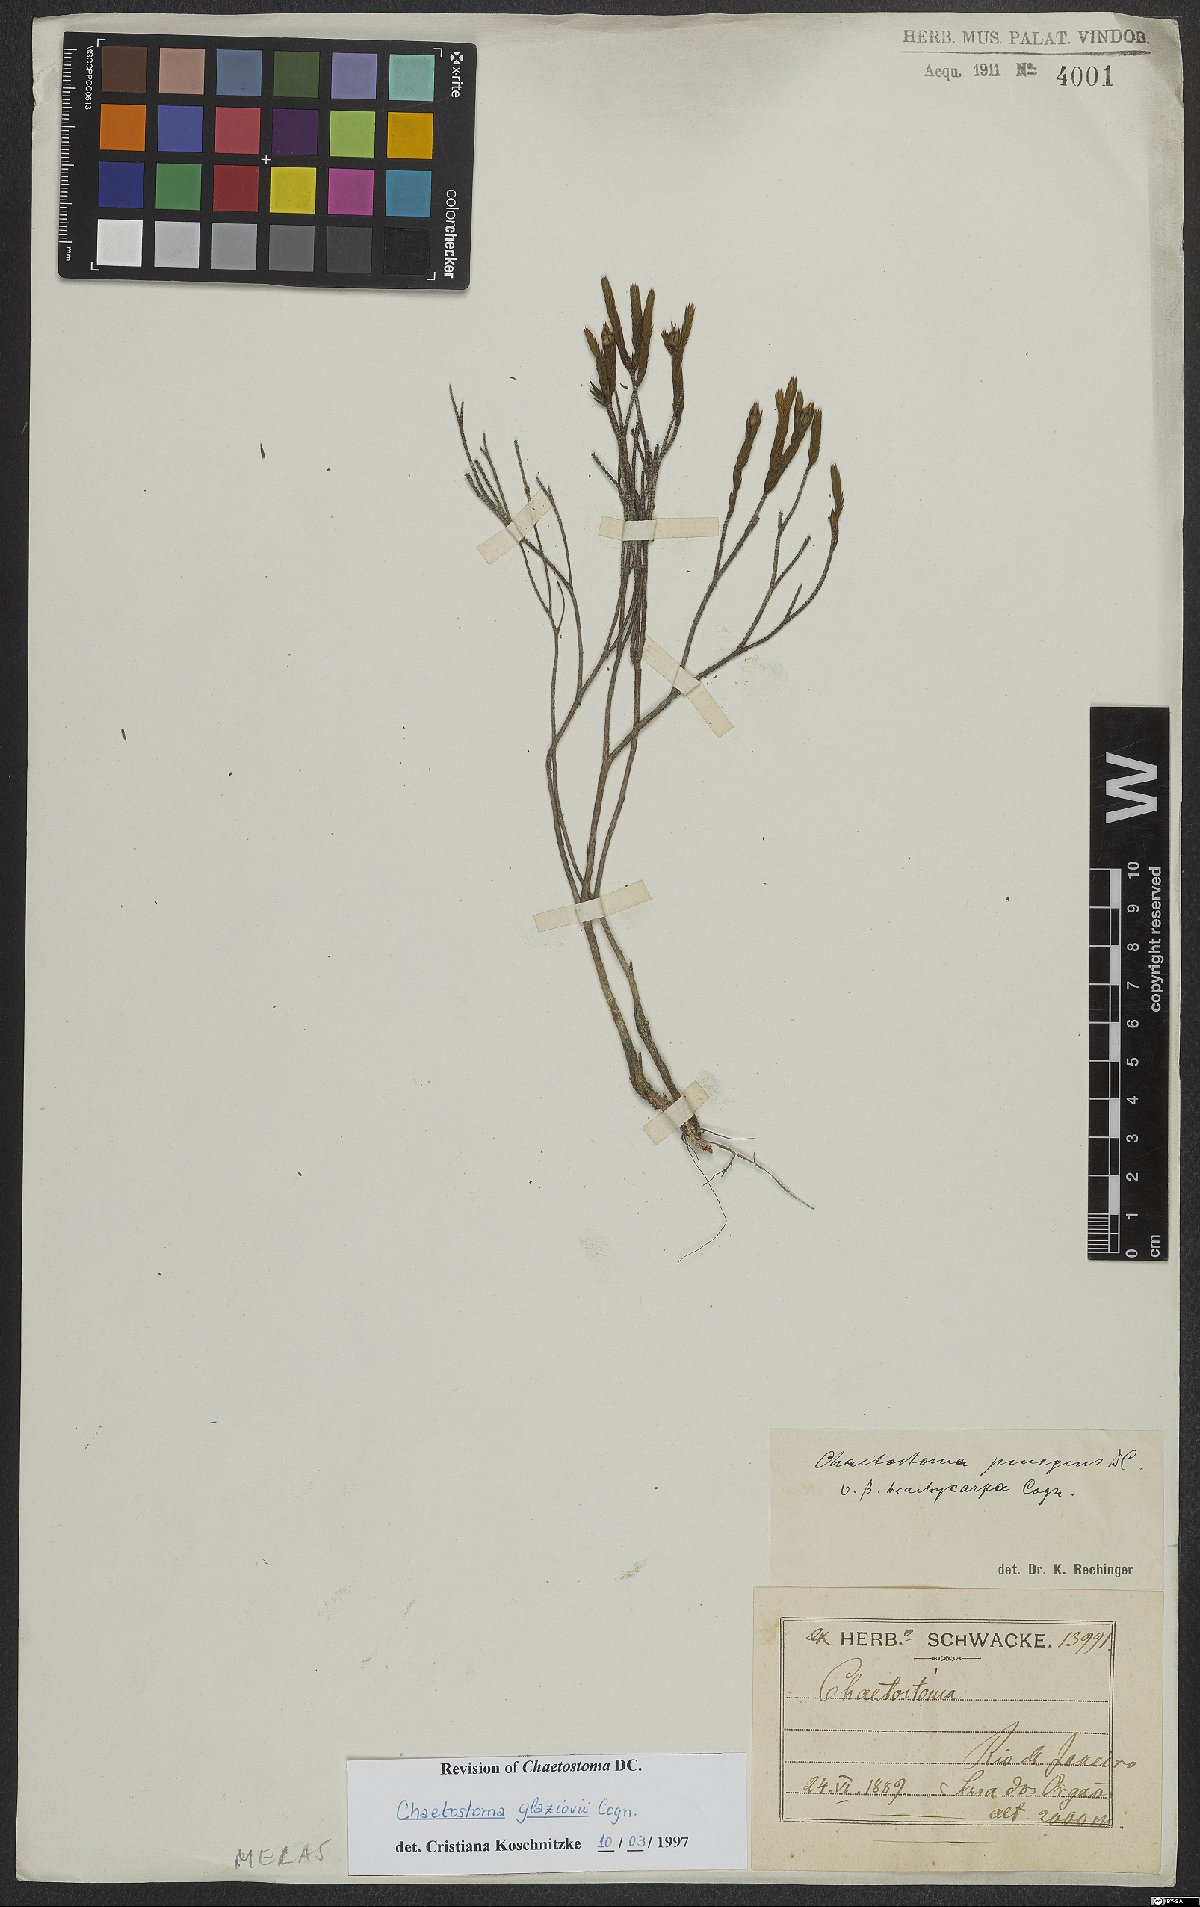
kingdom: Plantae
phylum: Tracheophyta
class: Magnoliopsida
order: Myrtales
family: Melastomataceae
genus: Microlicia
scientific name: Microlicia glaziovii
